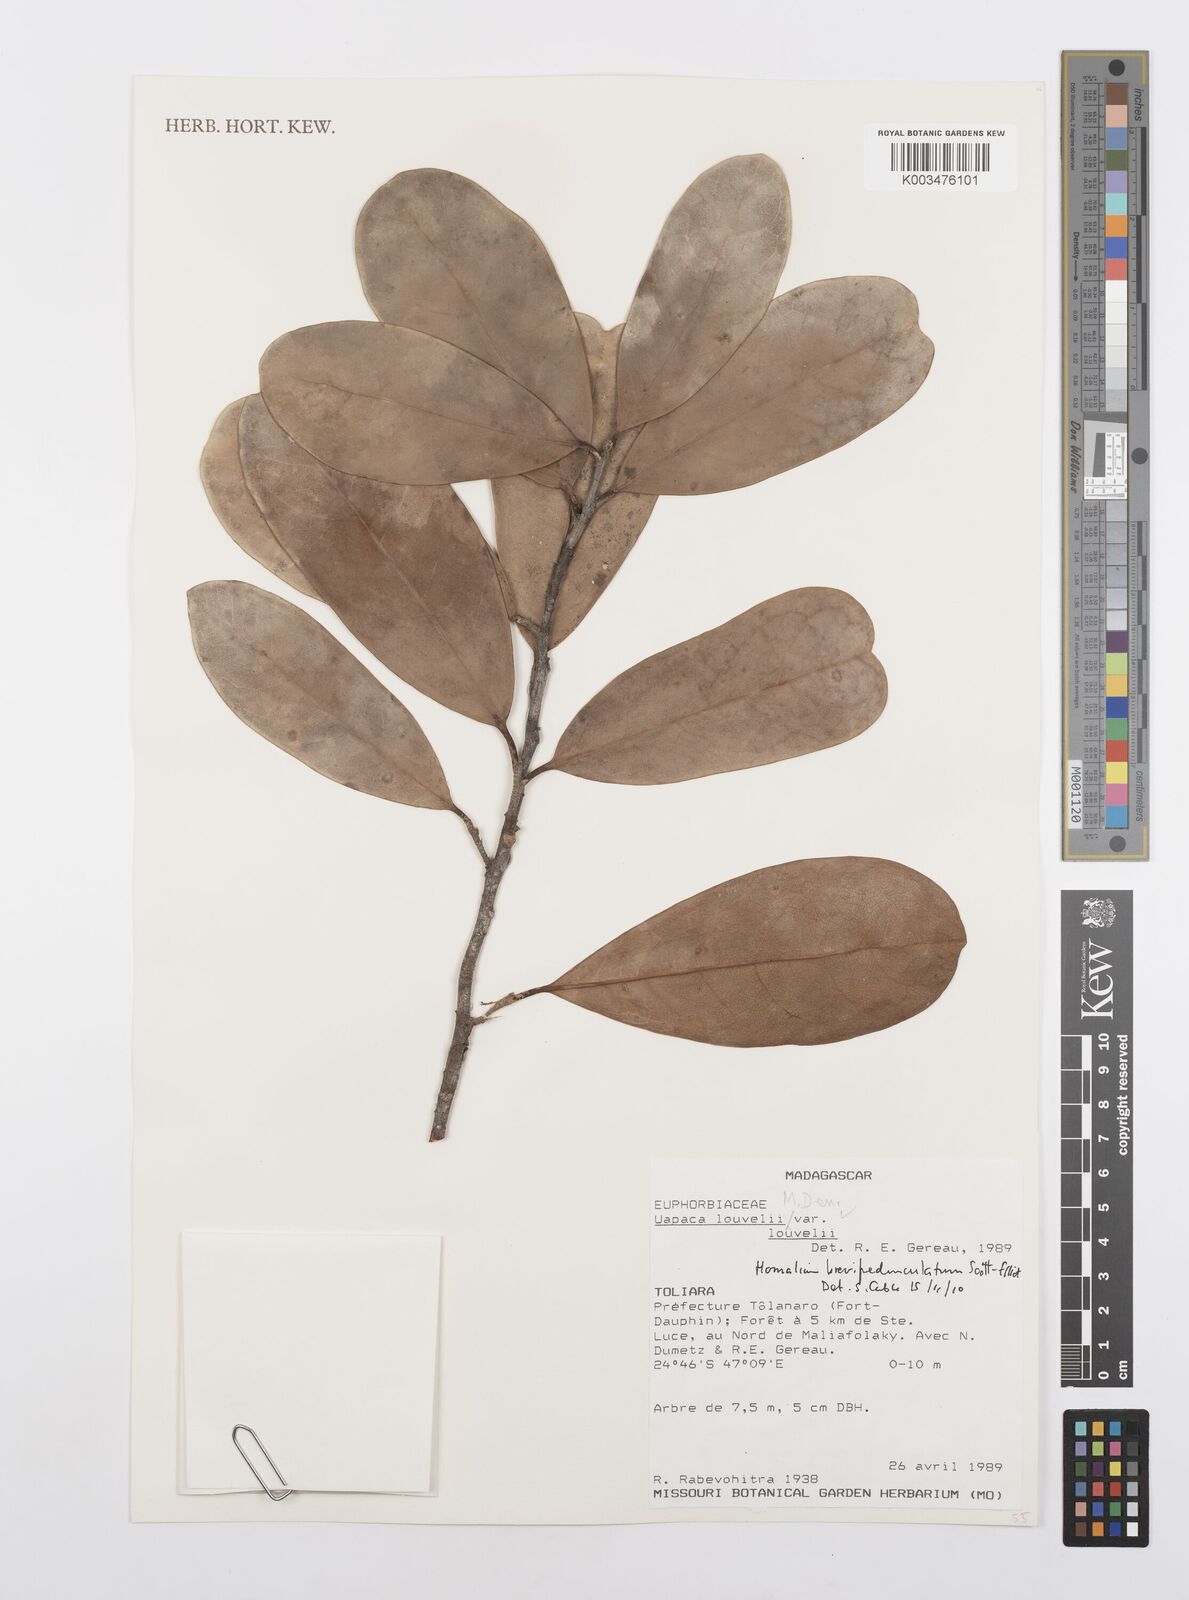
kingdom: Plantae
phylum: Tracheophyta
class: Magnoliopsida
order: Malpighiales
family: Salicaceae
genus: Homalium
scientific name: Homalium brevipedunculatum
